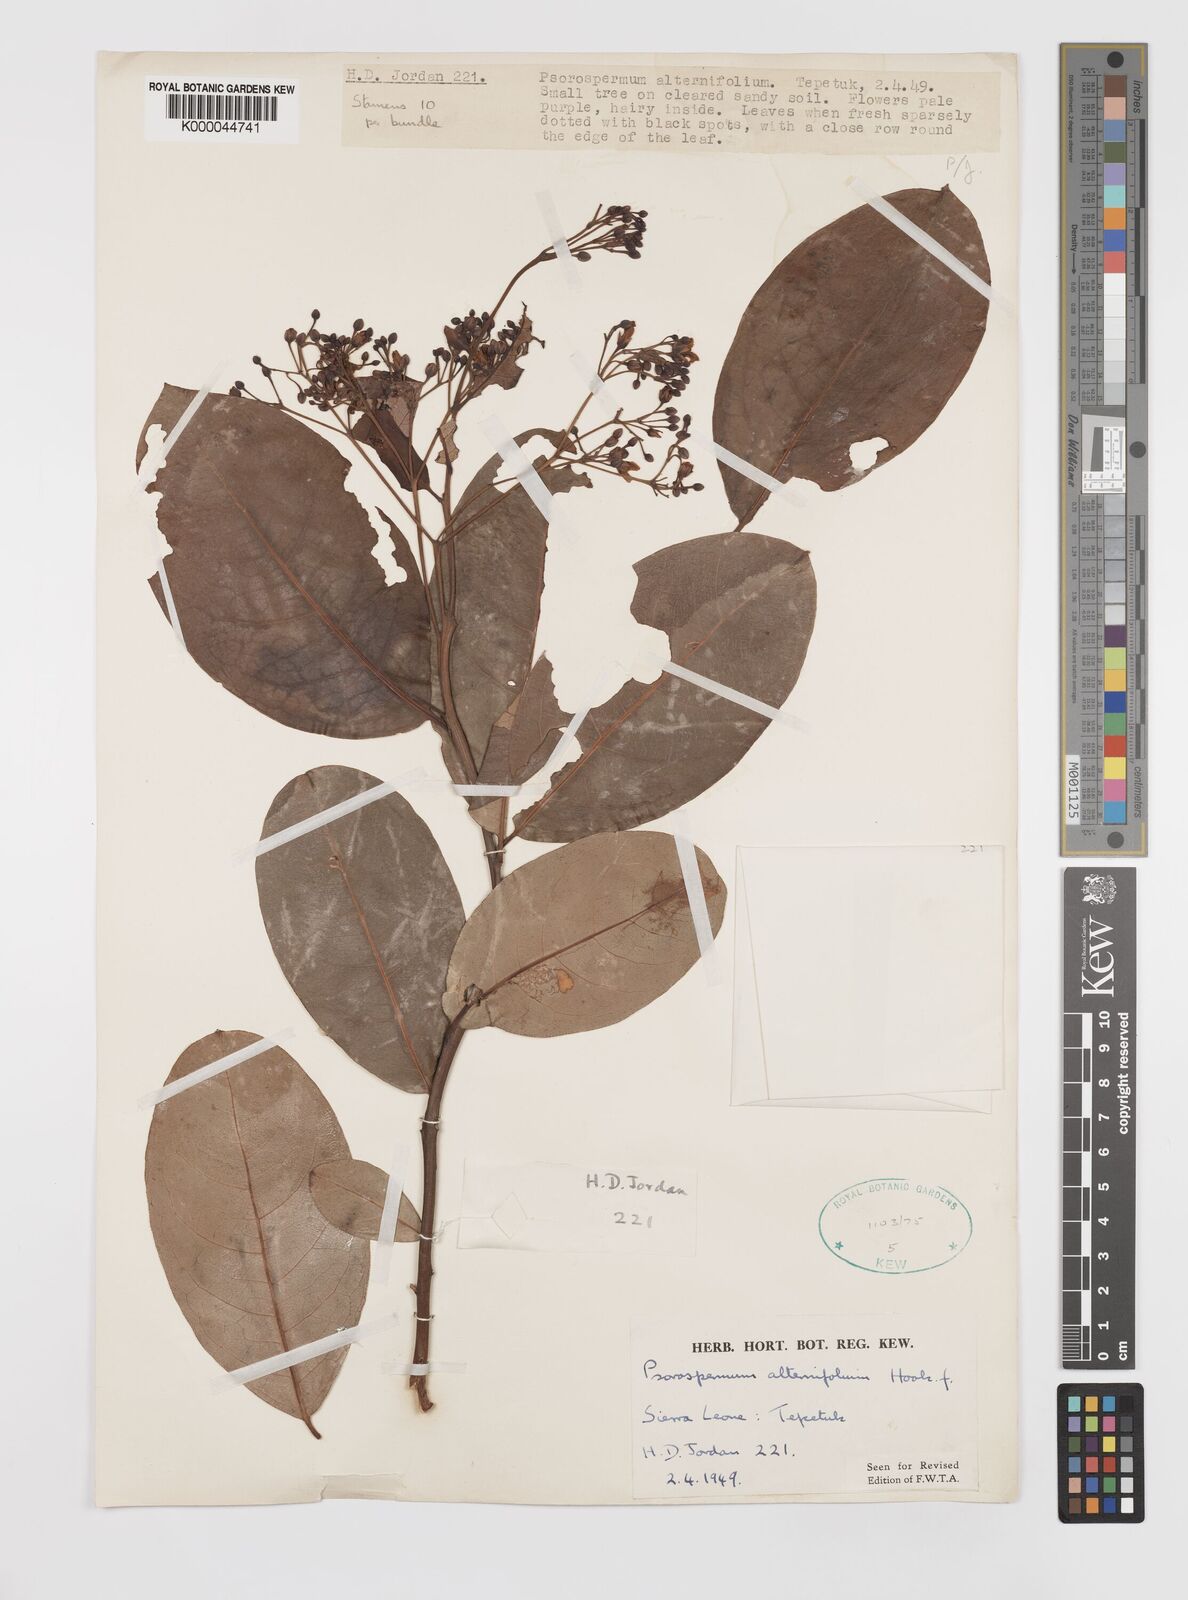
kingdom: Plantae
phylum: Tracheophyta
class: Magnoliopsida
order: Malpighiales
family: Hypericaceae
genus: Psorospermum
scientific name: Psorospermum alternifolium
